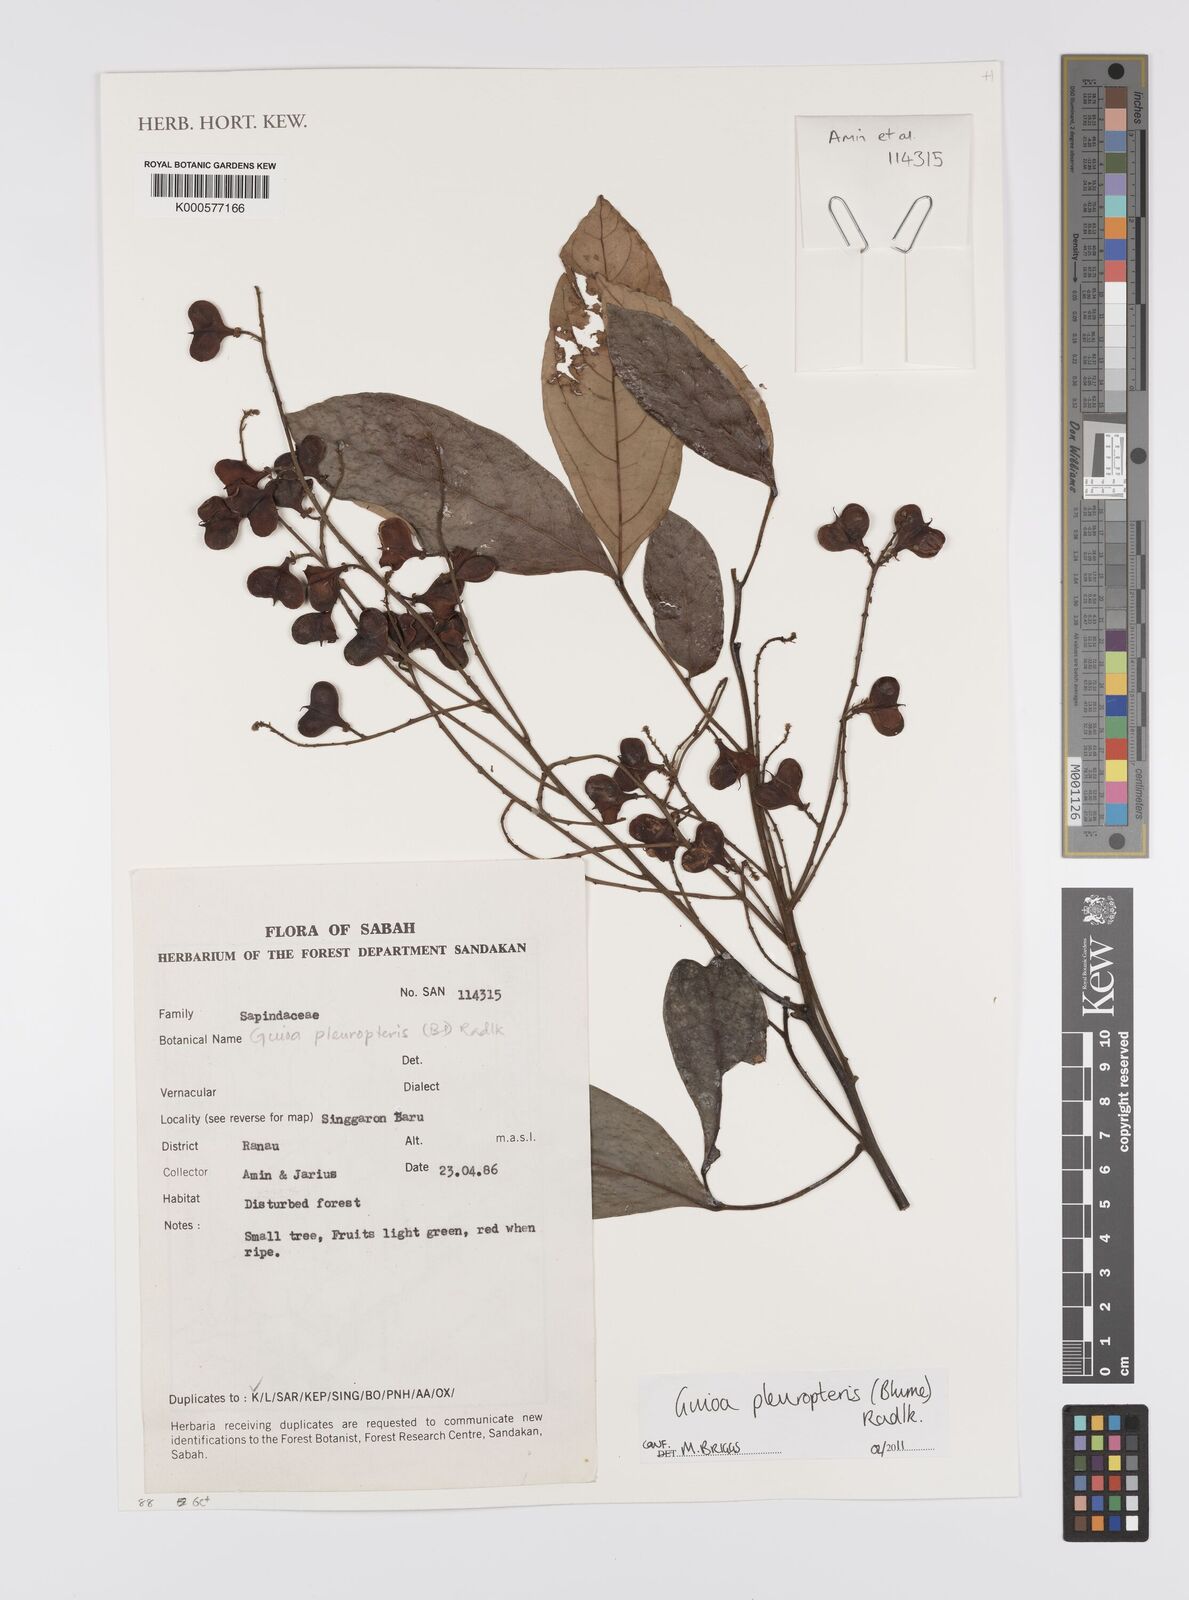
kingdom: Plantae
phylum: Tracheophyta
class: Magnoliopsida
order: Sapindales
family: Sapindaceae
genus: Guioa
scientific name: Guioa pleuropteris
